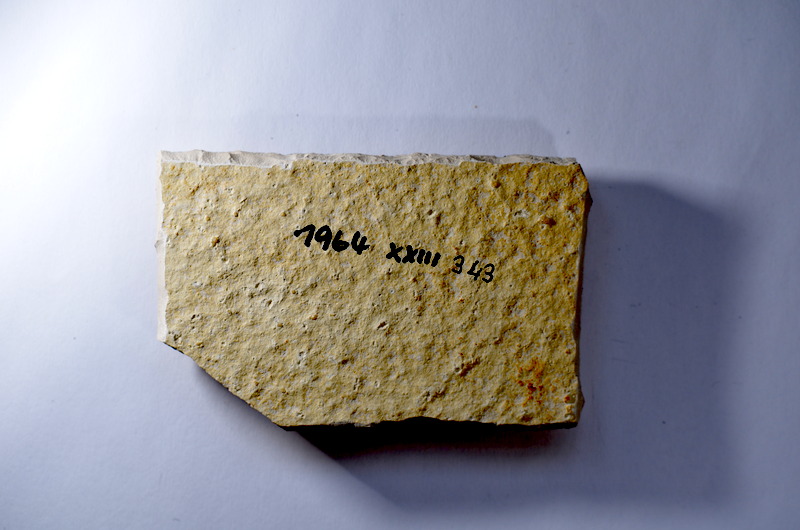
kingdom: Animalia
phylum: Chordata
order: Salmoniformes
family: Orthogonikleithridae
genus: Leptolepides
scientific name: Leptolepides
